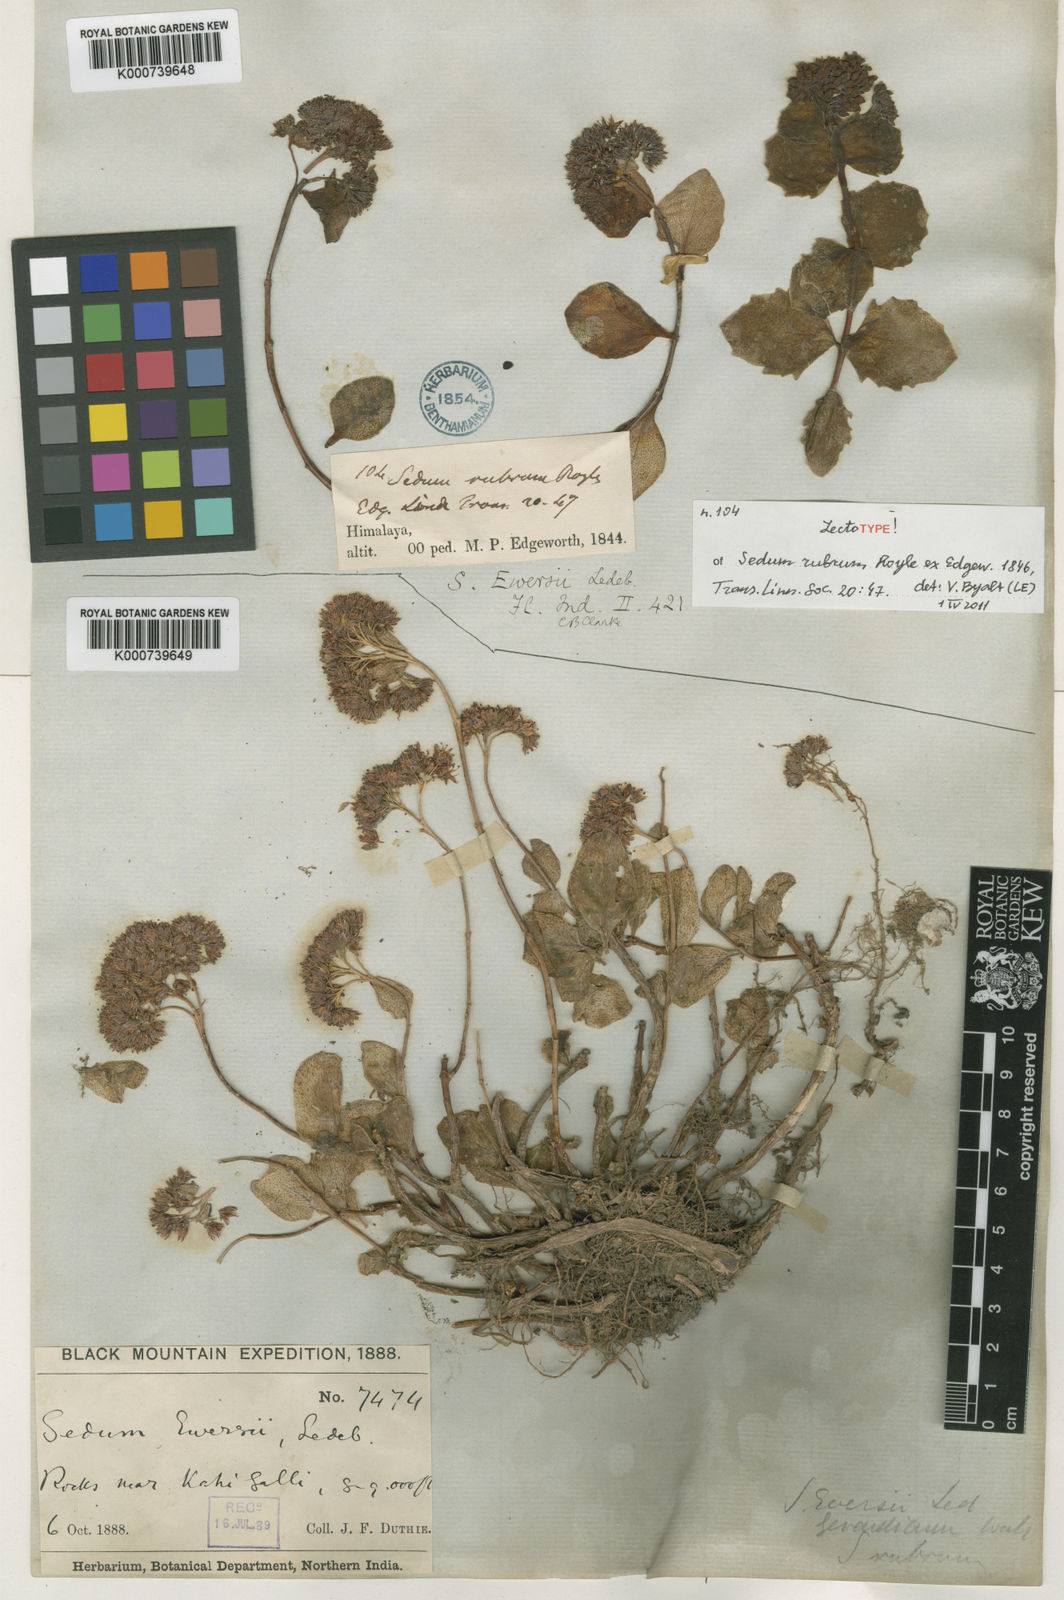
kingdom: Plantae
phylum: Tracheophyta
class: Magnoliopsida
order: Saxifragales
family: Crassulaceae
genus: Hylotelephium
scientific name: Hylotelephium ewersii
